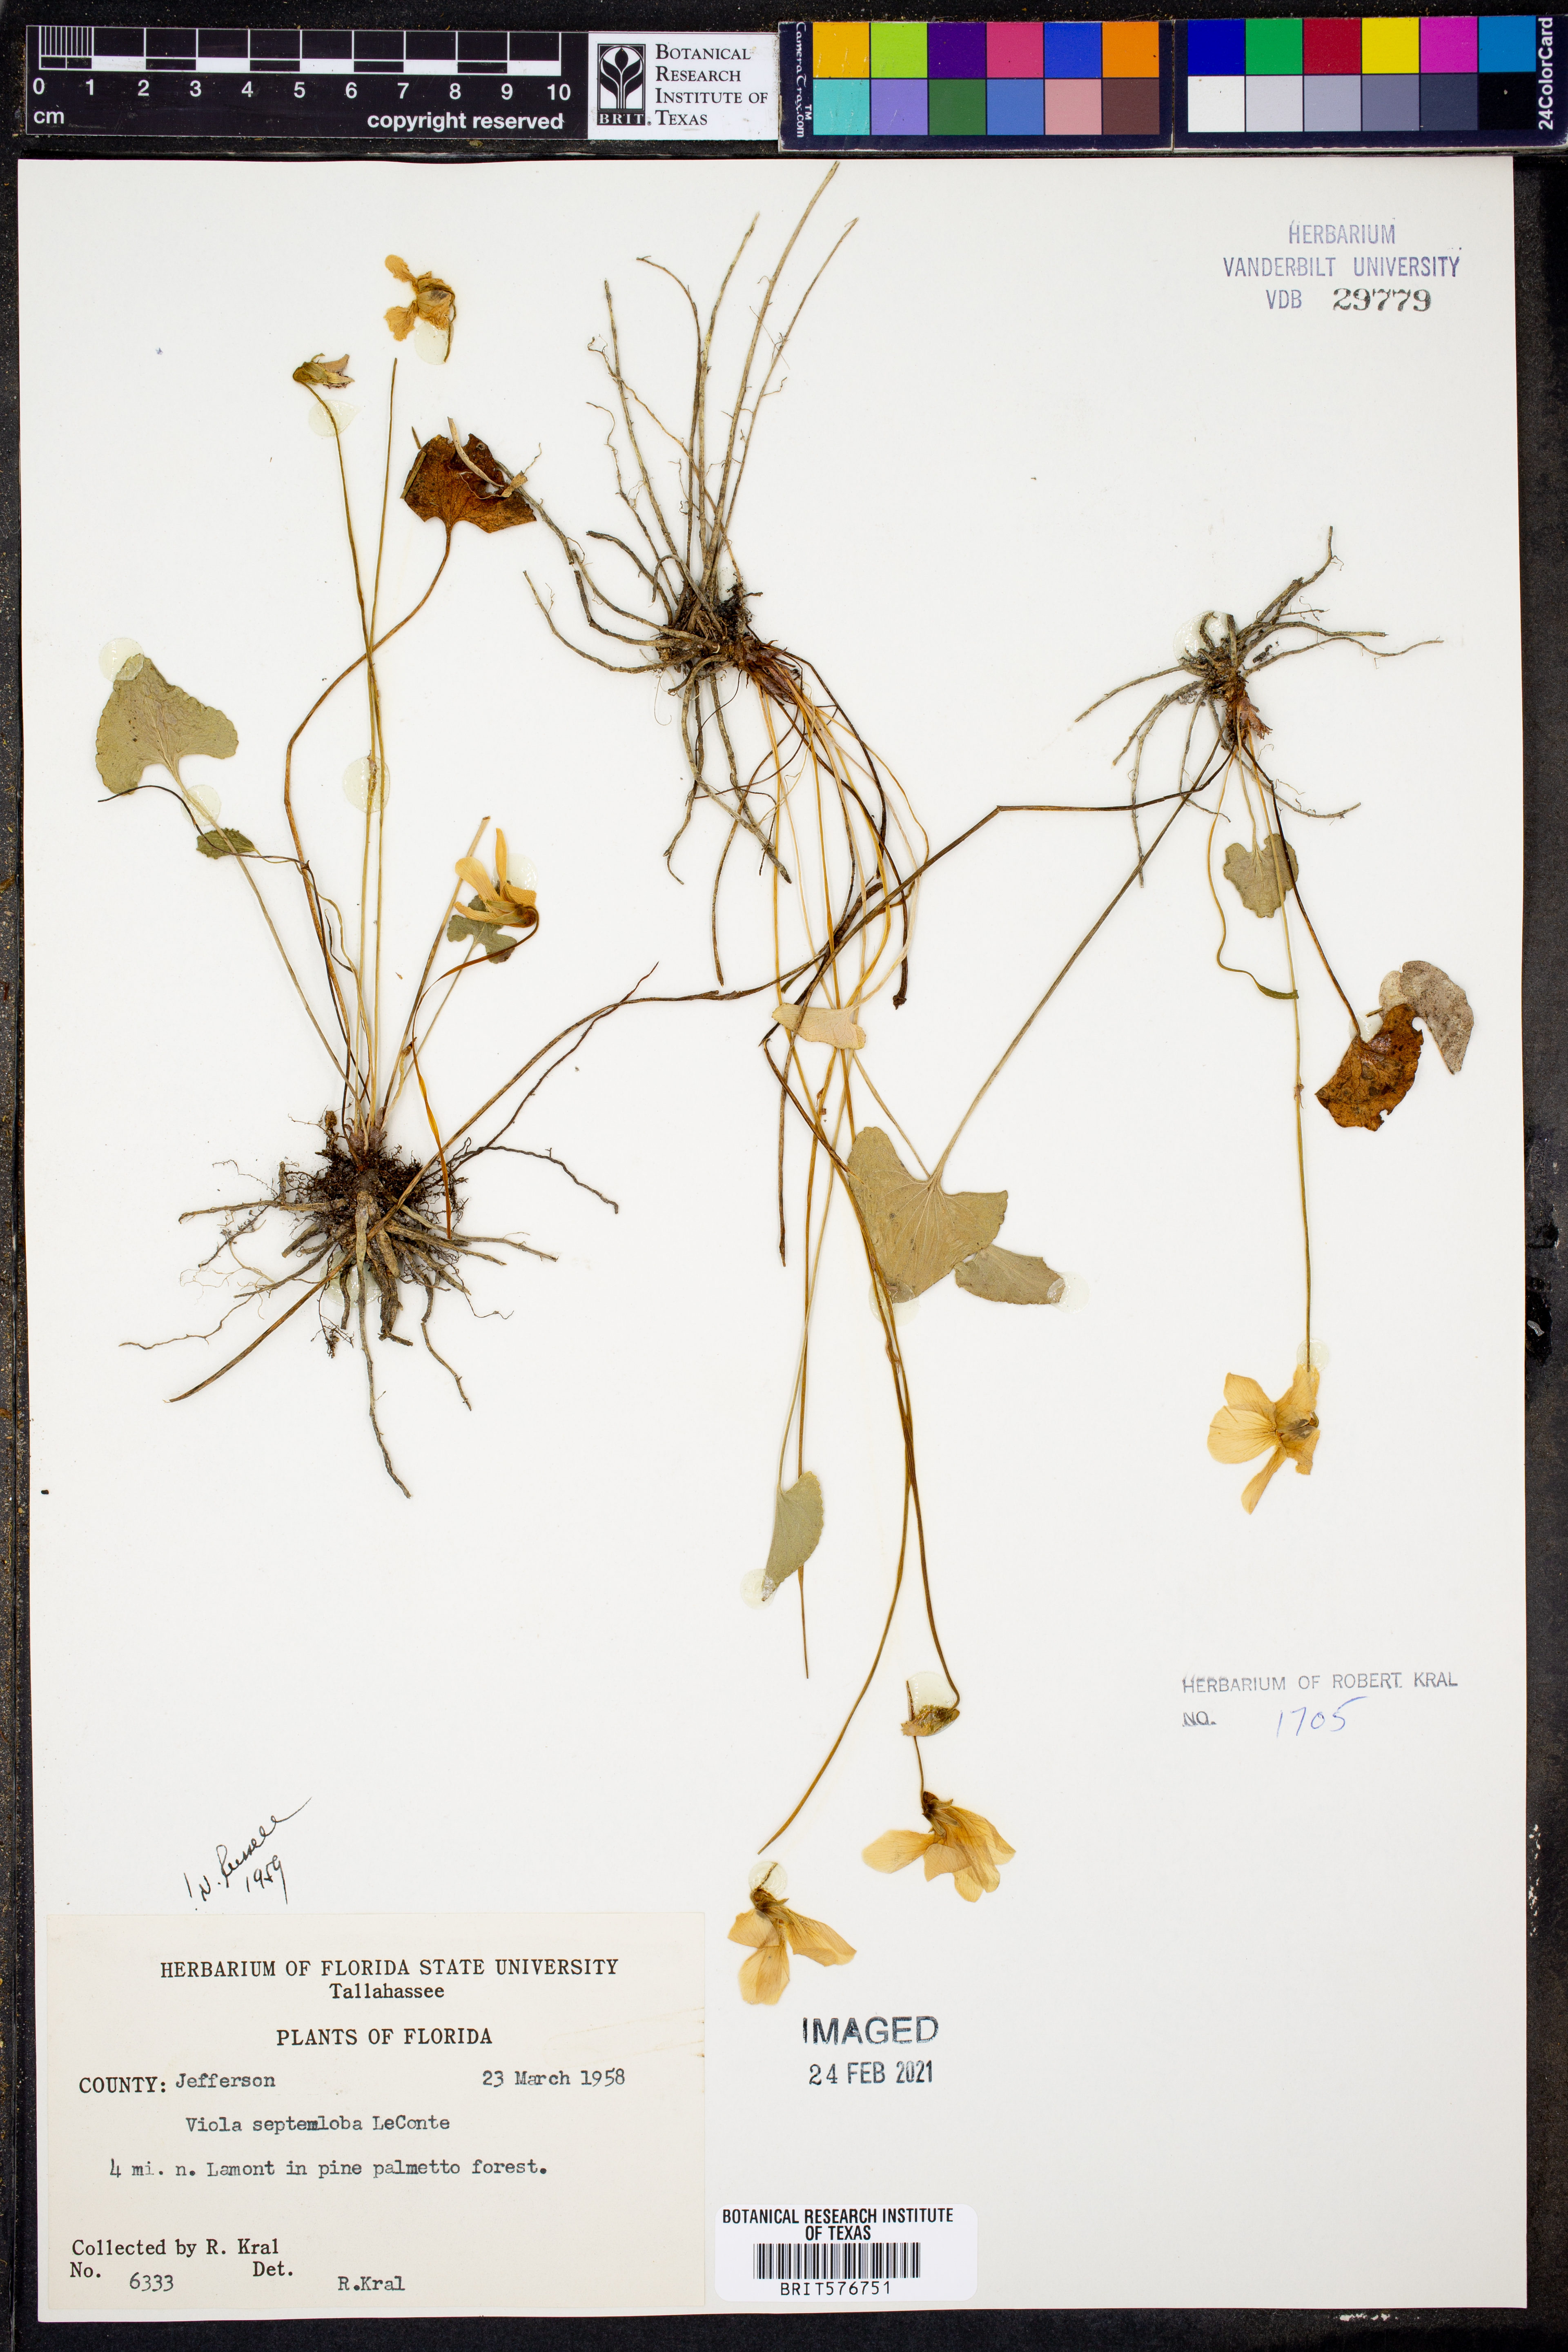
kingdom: Plantae
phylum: Tracheophyta
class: Magnoliopsida
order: Malpighiales
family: Violaceae
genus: Viola
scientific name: Viola septemloba
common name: Southern coast violet
